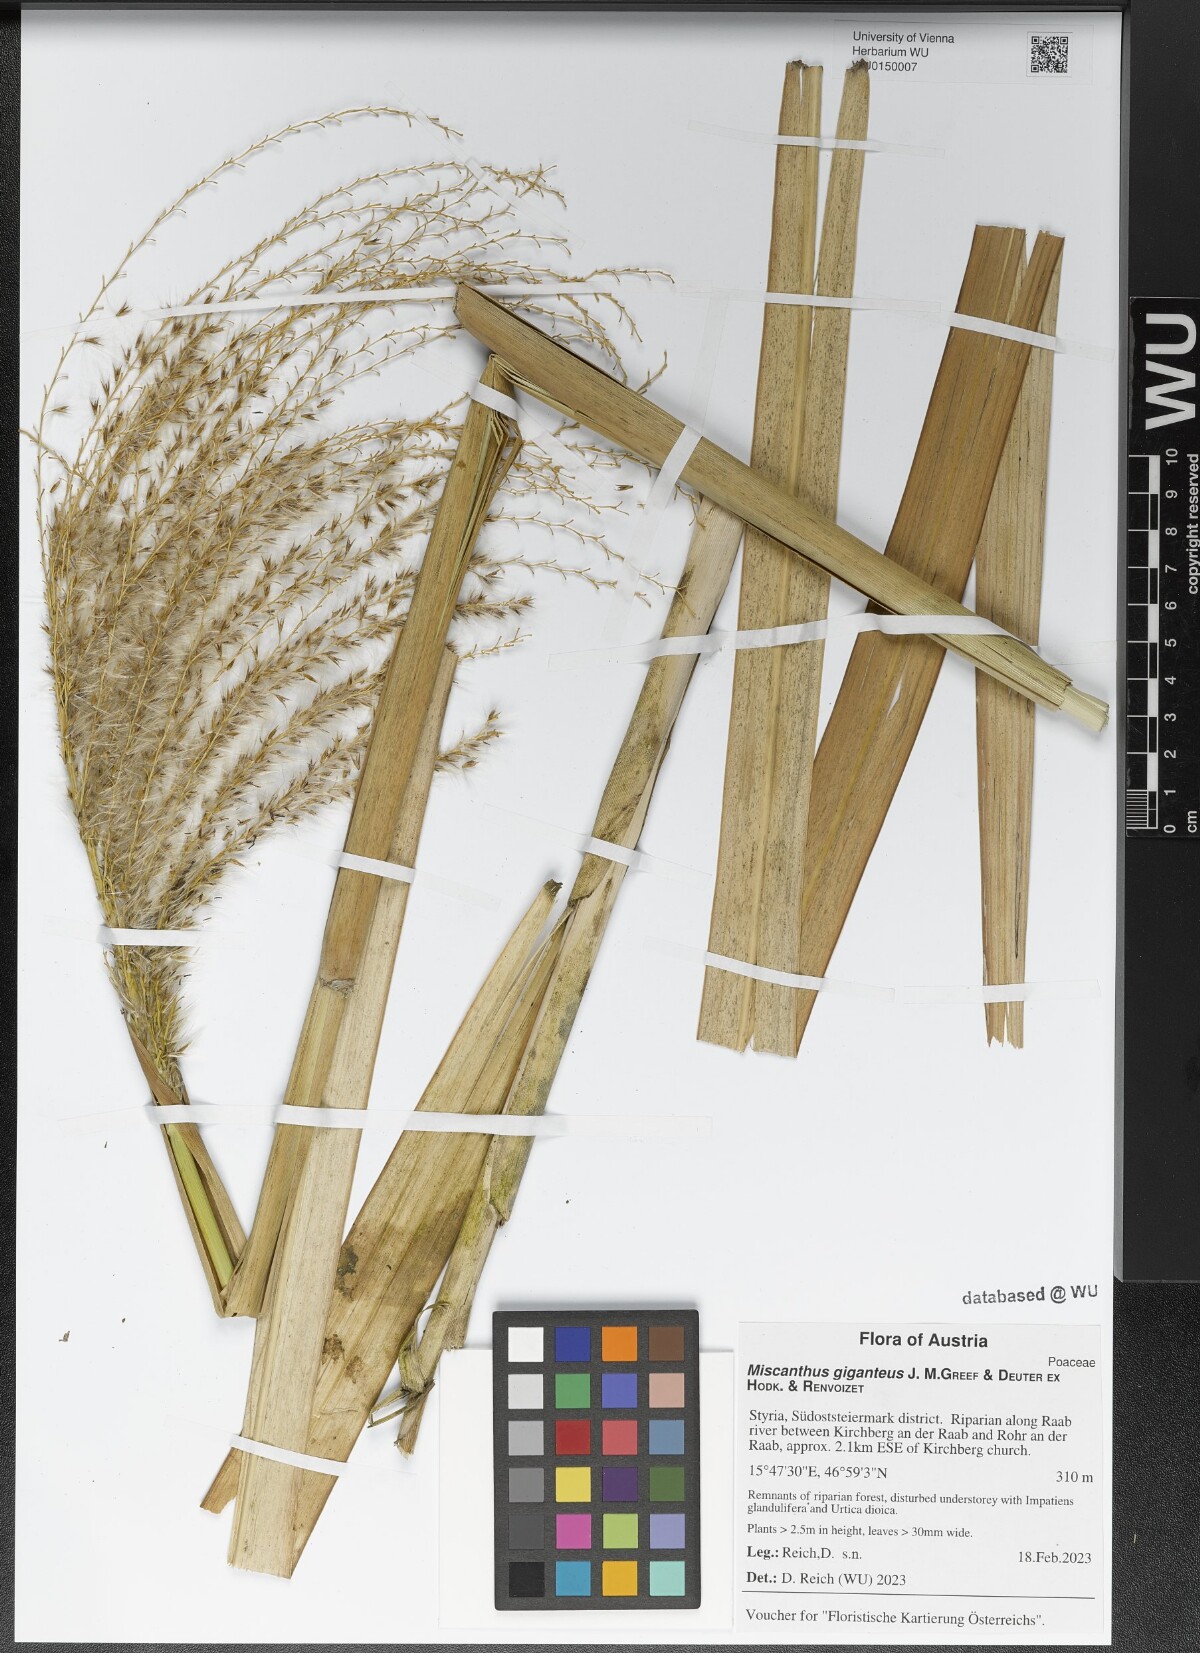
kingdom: Plantae
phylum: Tracheophyta
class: Liliopsida
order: Poales
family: Poaceae
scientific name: Poaceae
